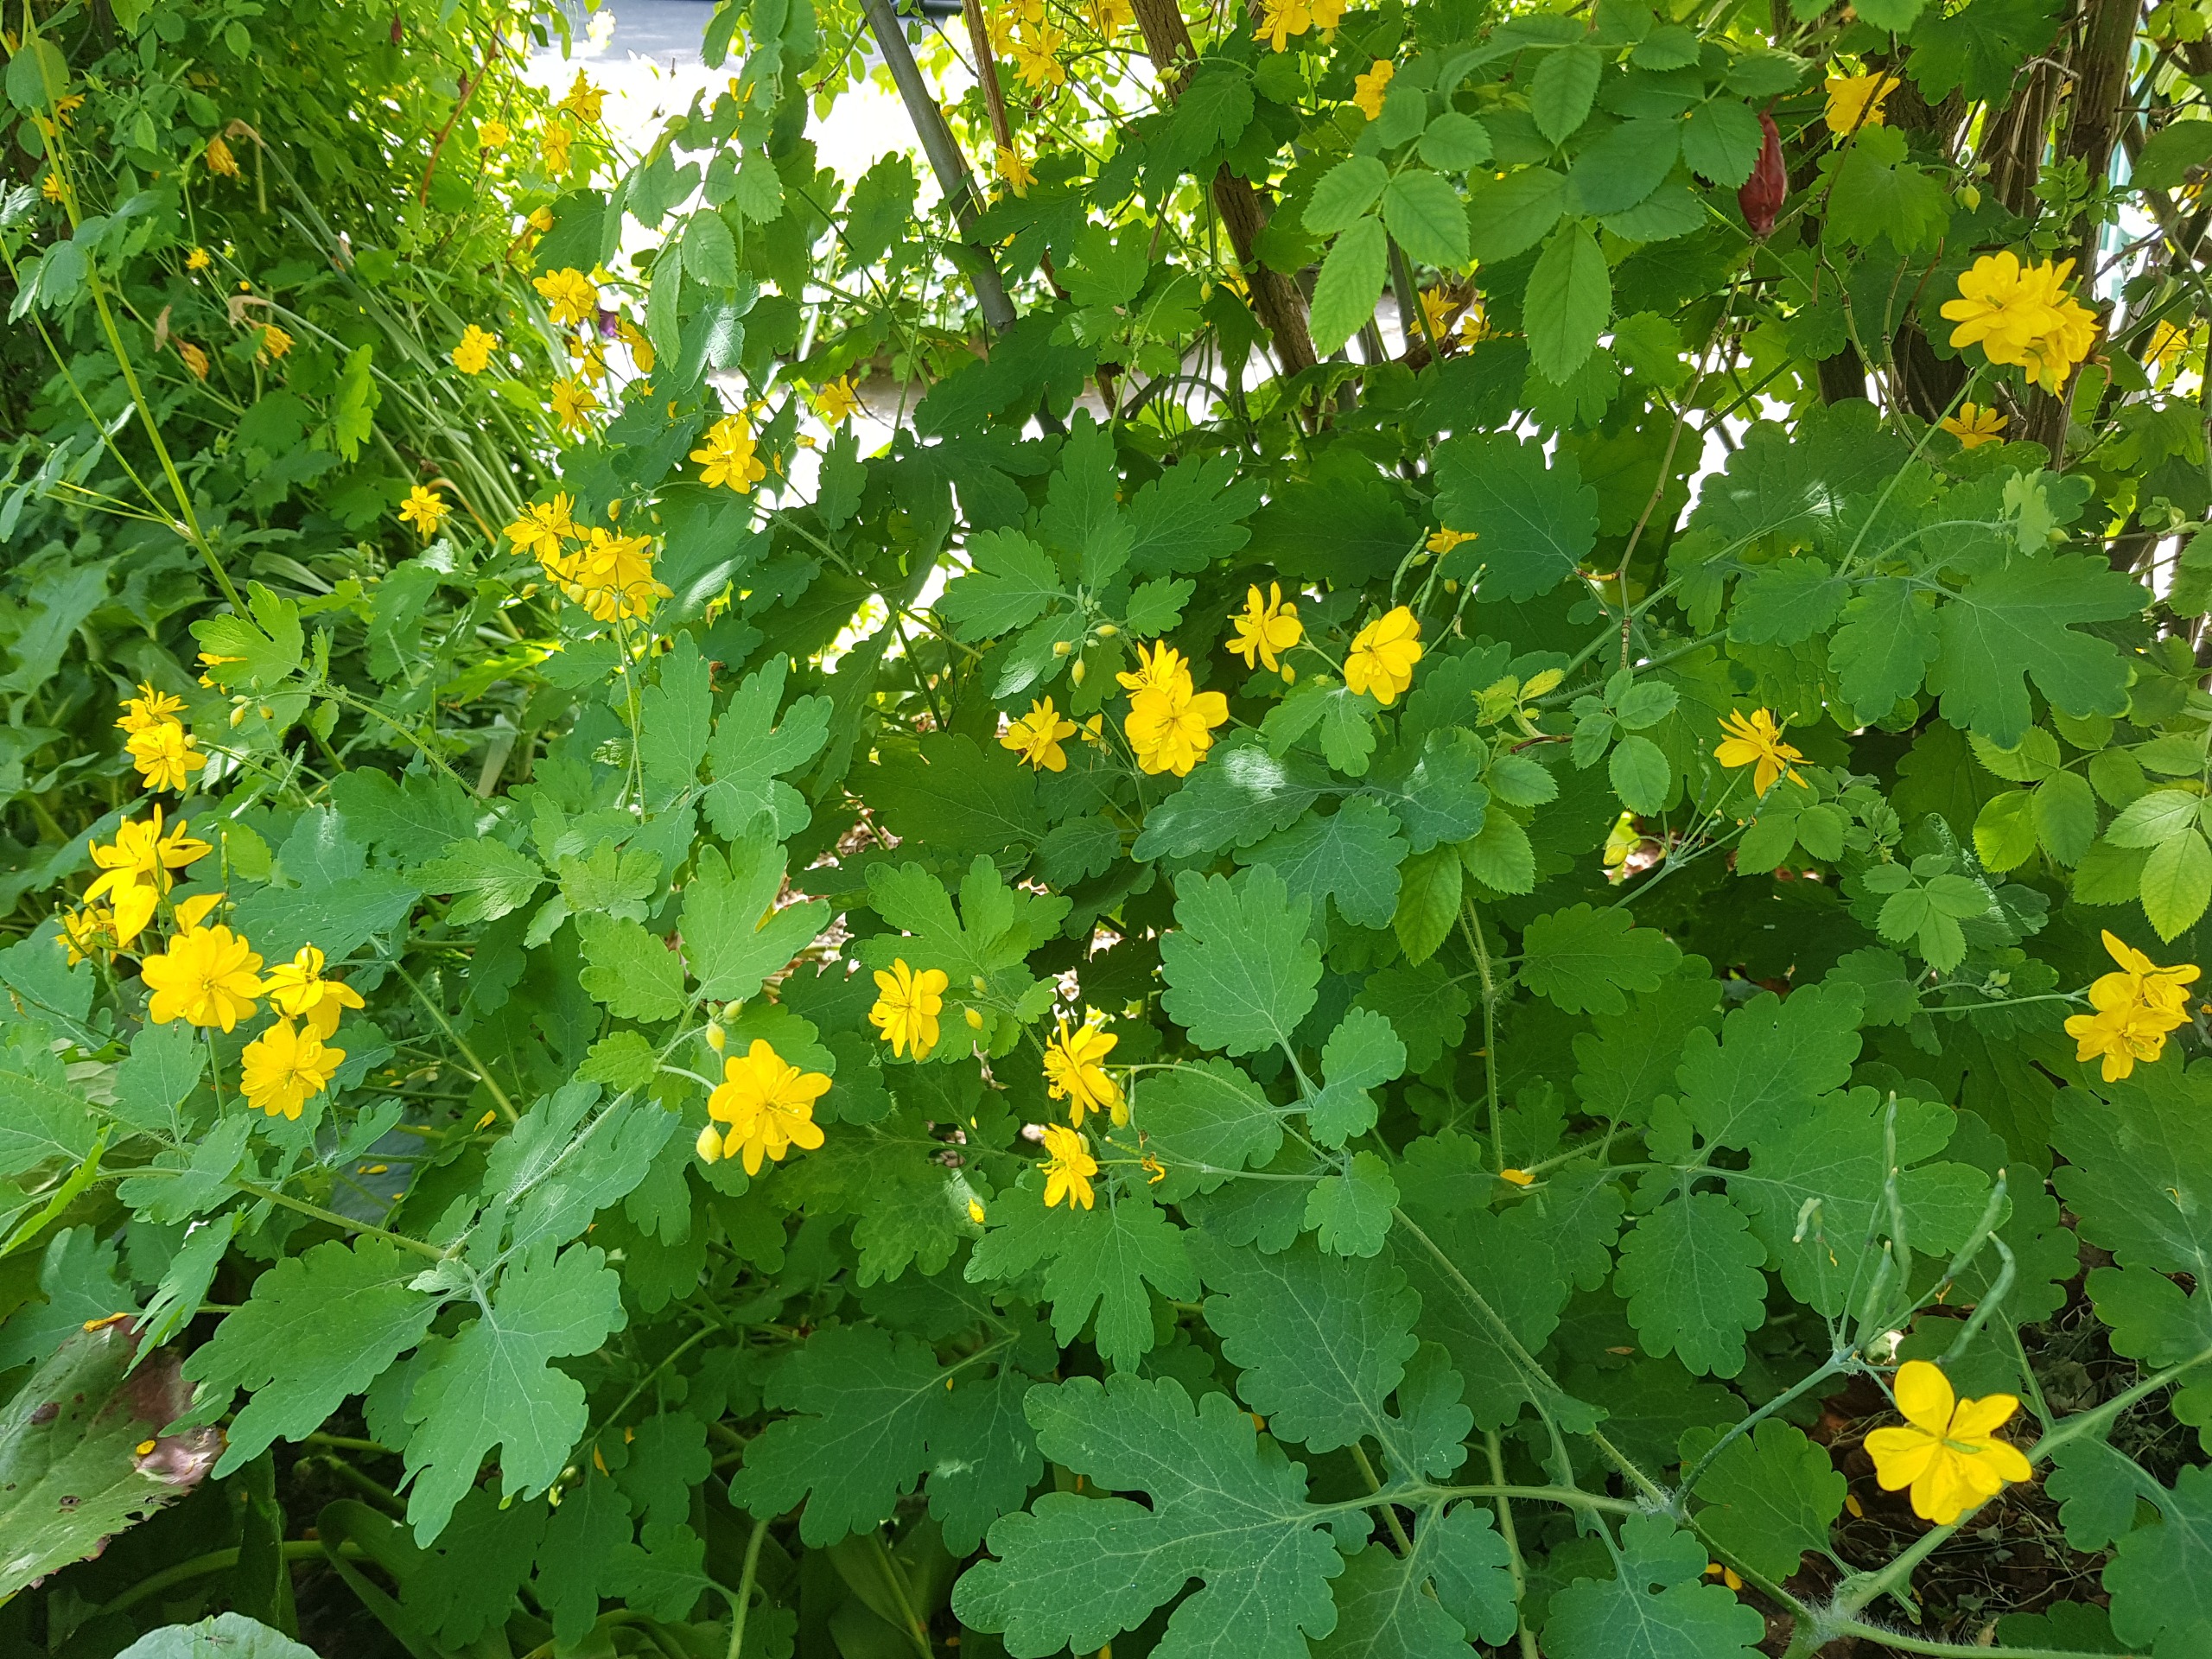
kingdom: Plantae
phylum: Tracheophyta
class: Magnoliopsida
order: Ranunculales
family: Papaveraceae
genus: Chelidonium
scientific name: Chelidonium majus
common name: Svaleurt
